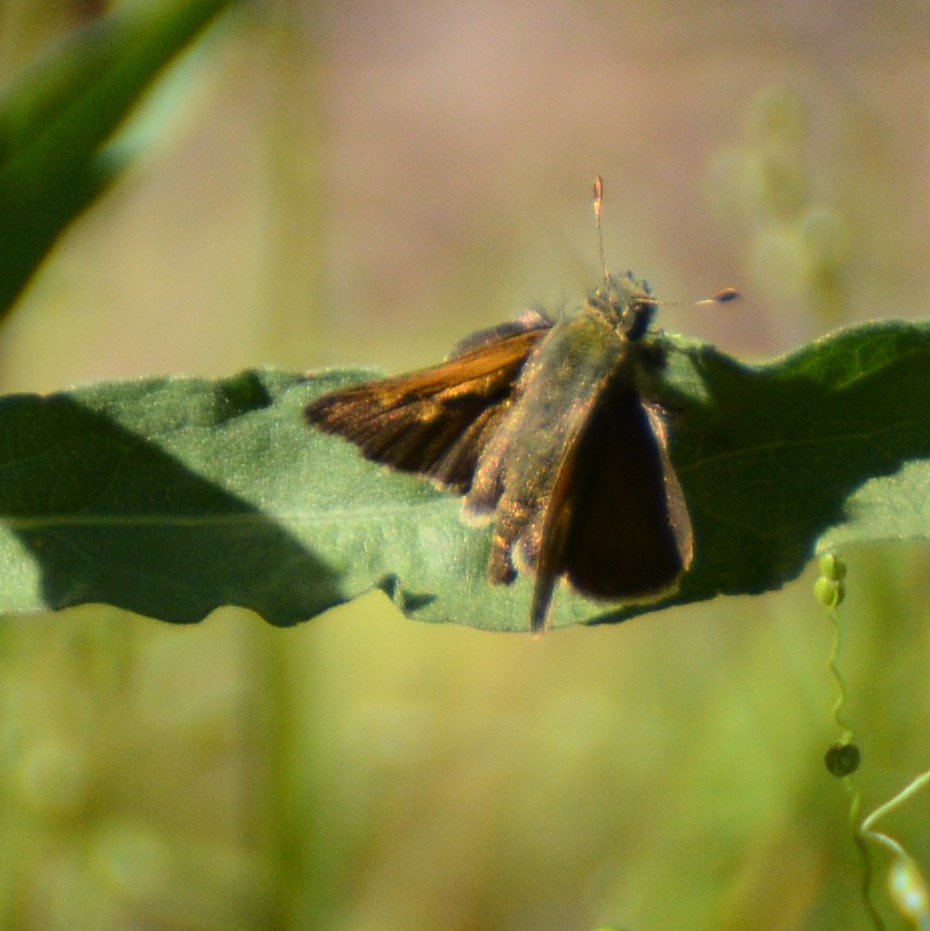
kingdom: Animalia
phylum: Arthropoda
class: Insecta
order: Lepidoptera
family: Hesperiidae
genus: Polites
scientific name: Polites themistocles
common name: Tawny-edged Skipper
